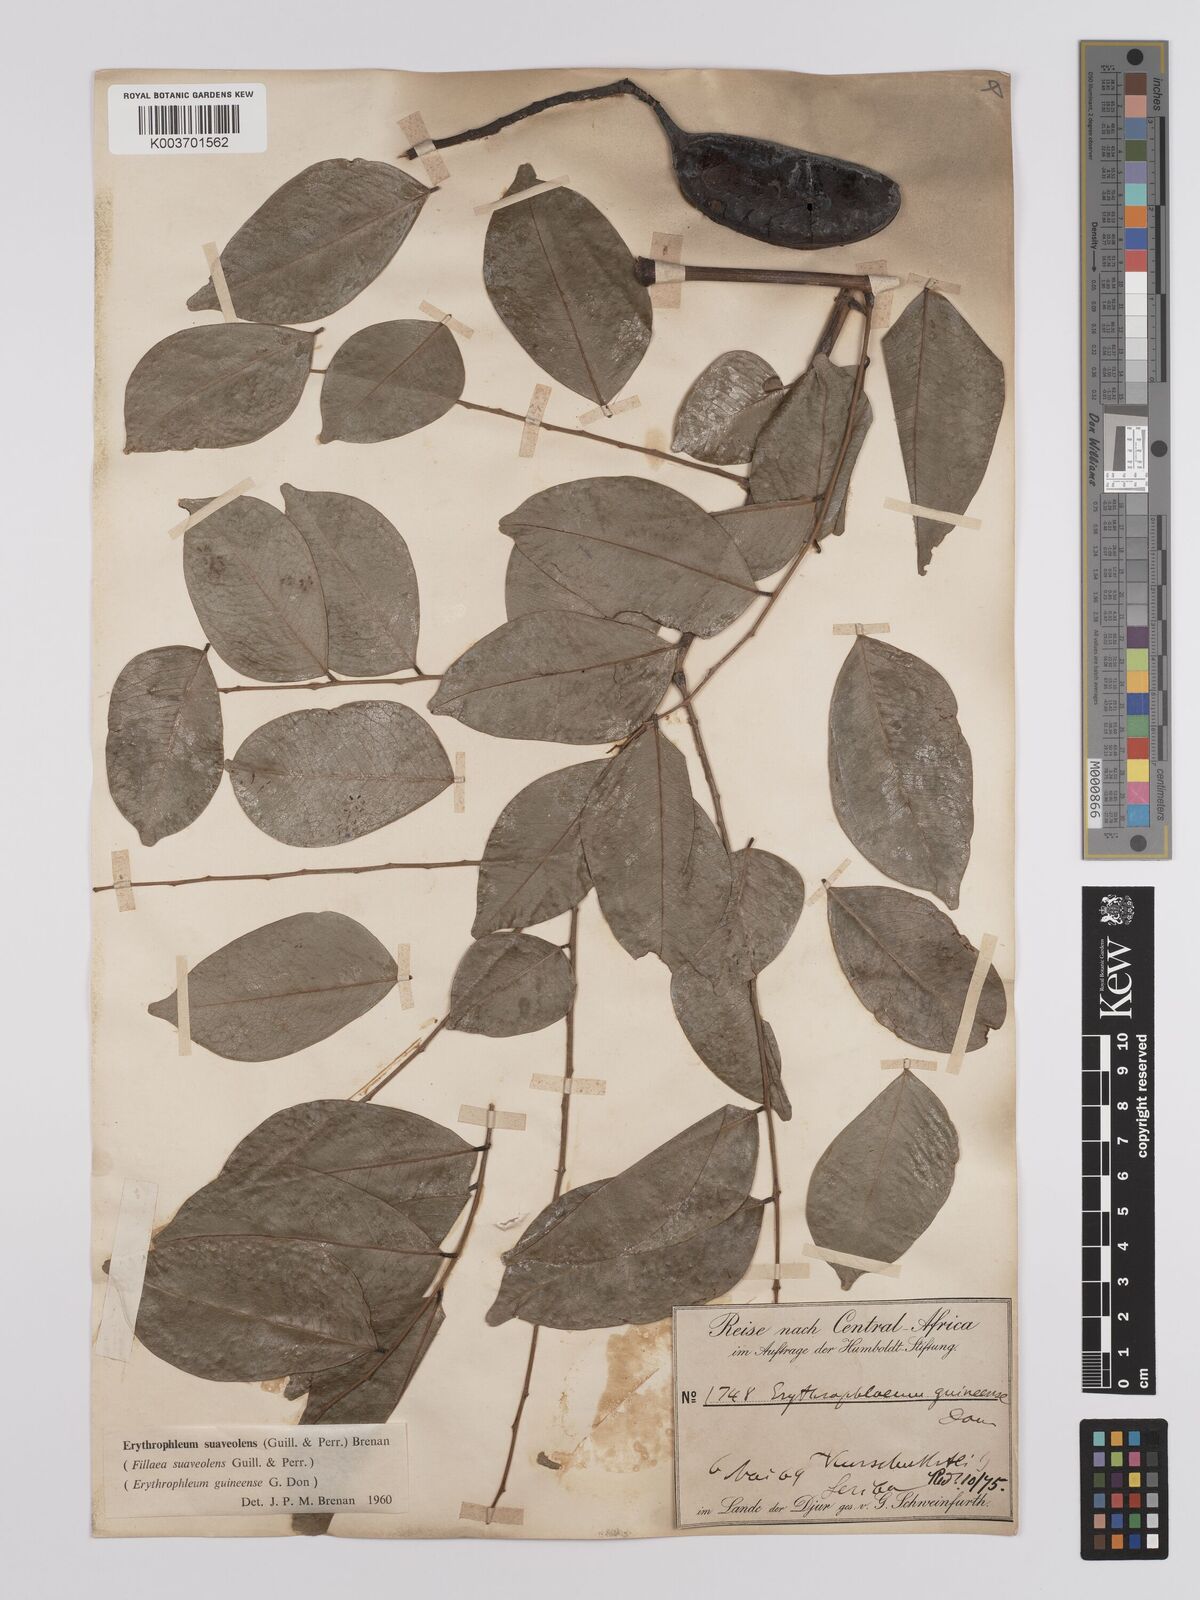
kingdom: Plantae
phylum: Tracheophyta
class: Magnoliopsida
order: Fabales
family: Fabaceae
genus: Erythrophleum
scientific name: Erythrophleum suaveolens
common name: Ordeal tree
